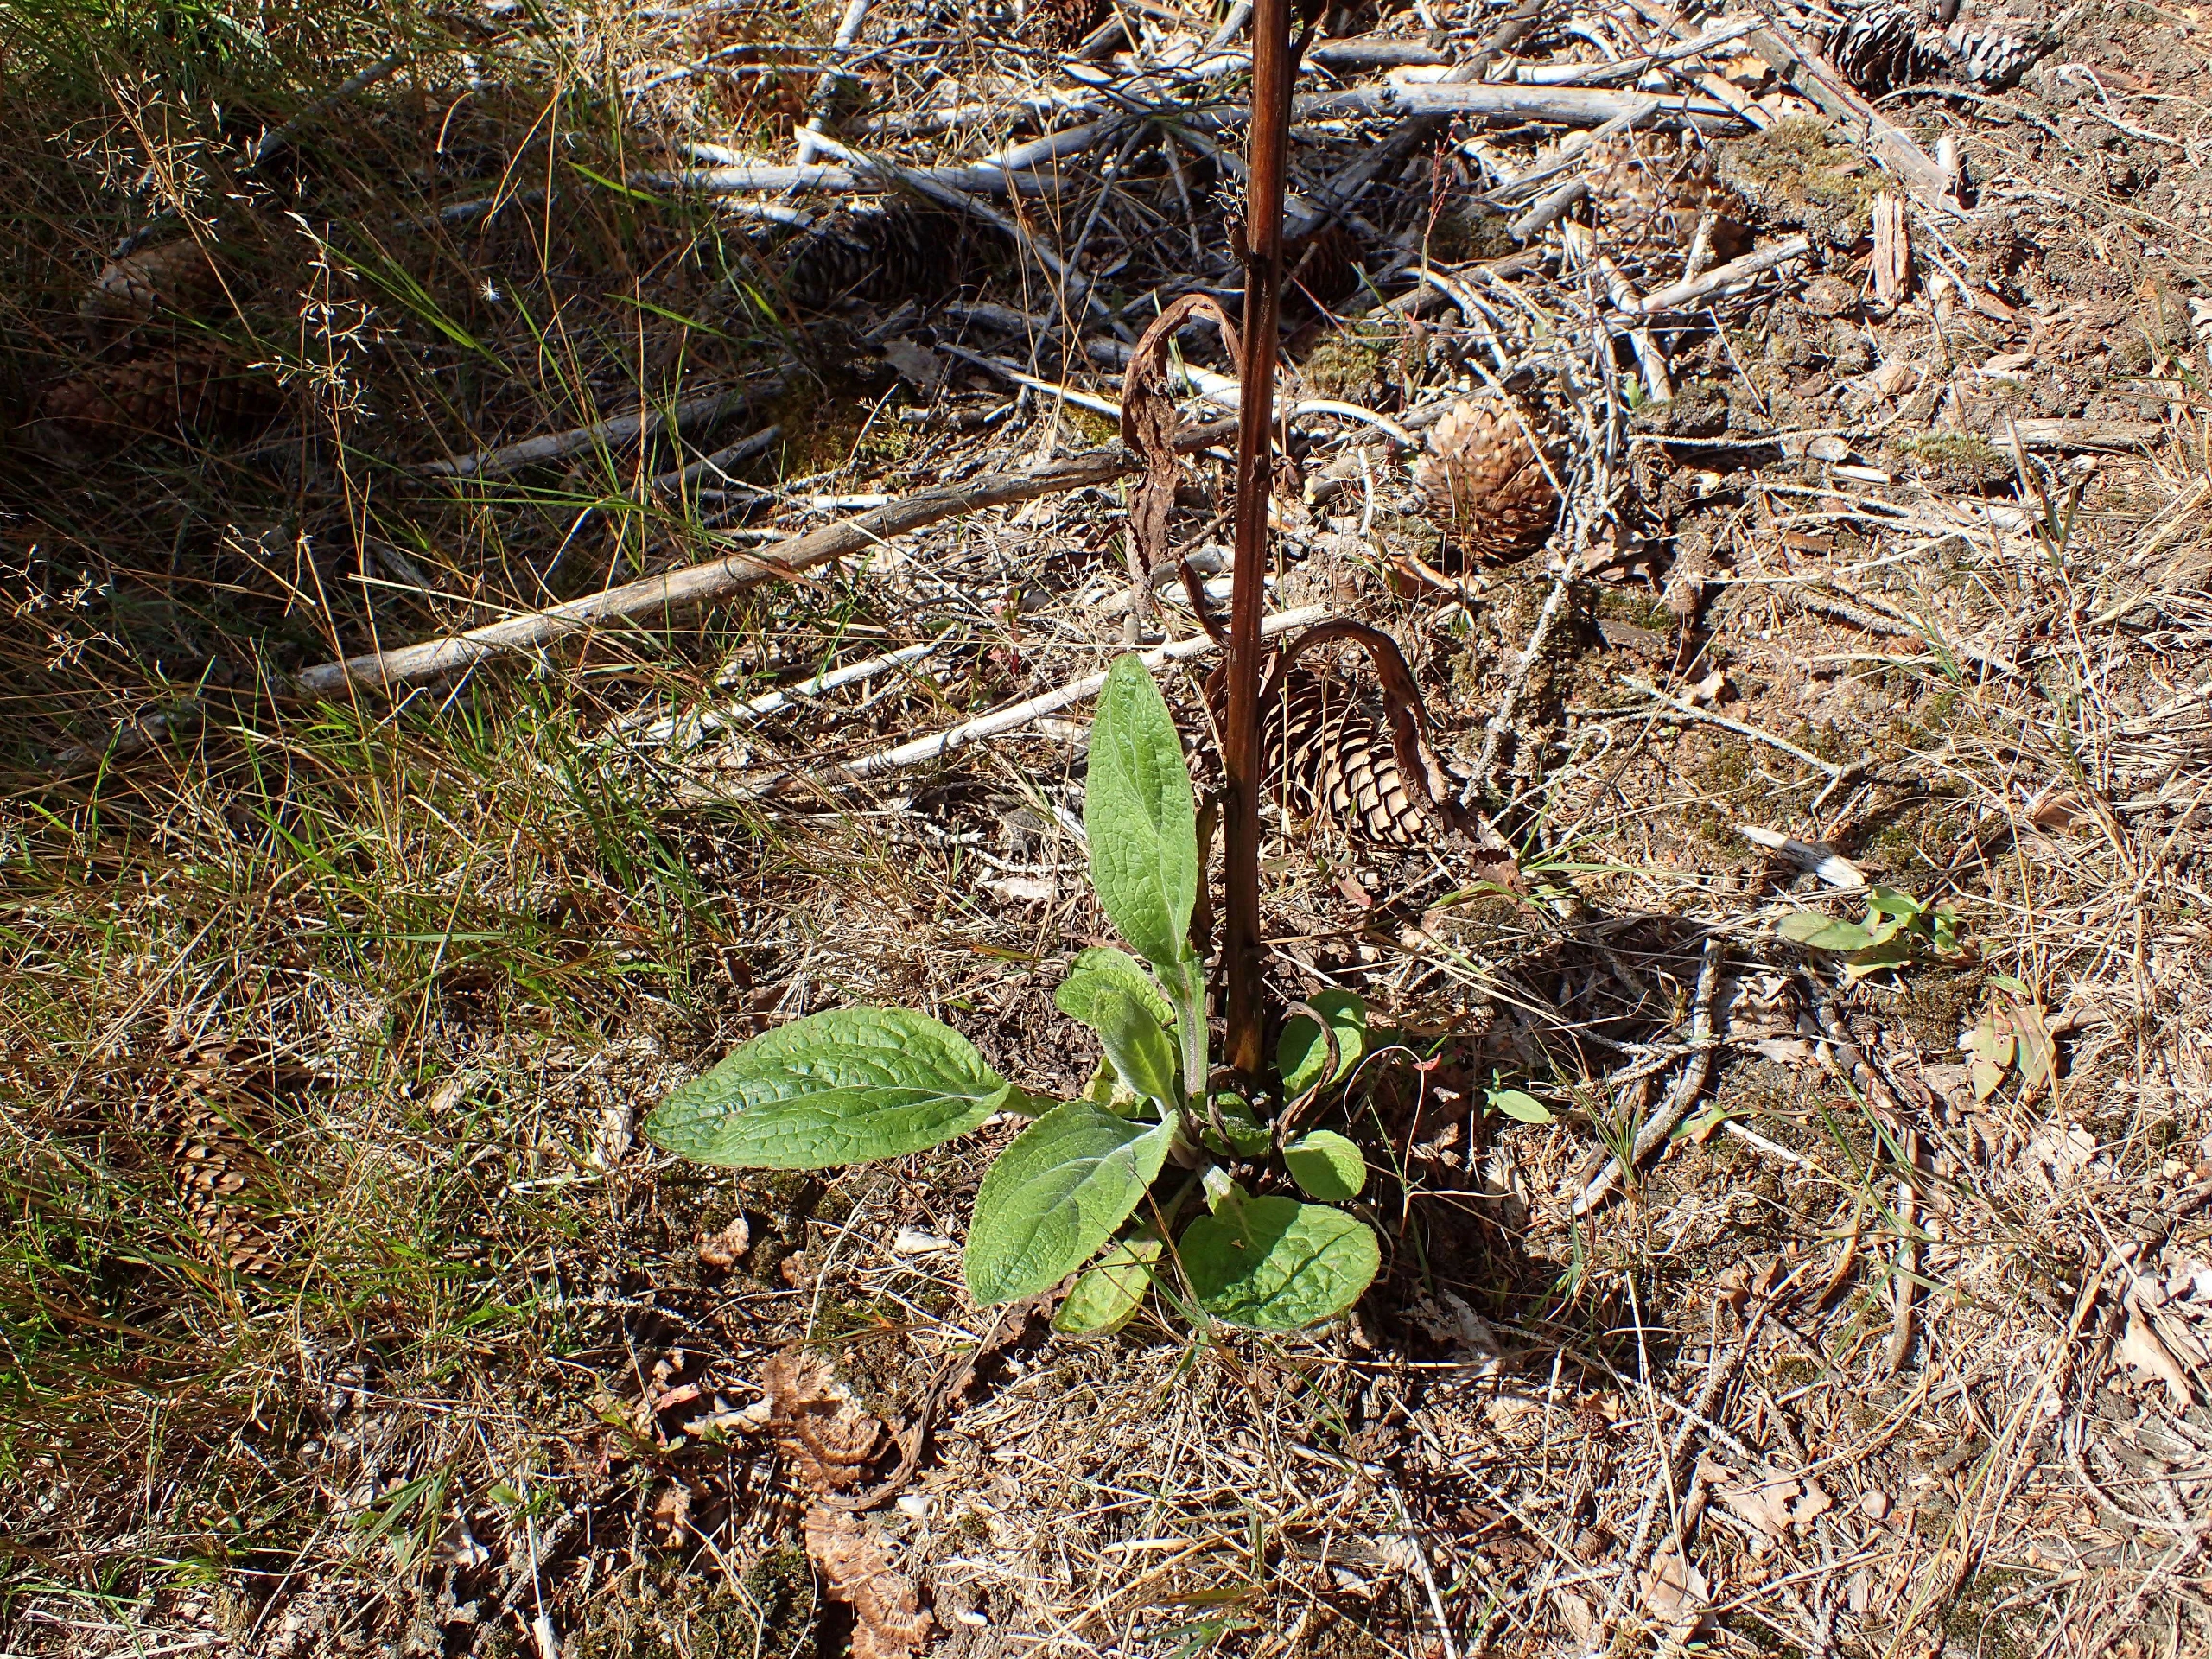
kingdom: Plantae
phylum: Tracheophyta
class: Magnoliopsida
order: Lamiales
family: Plantaginaceae
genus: Digitalis
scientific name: Digitalis purpurea
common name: Almindelig fingerbøl
